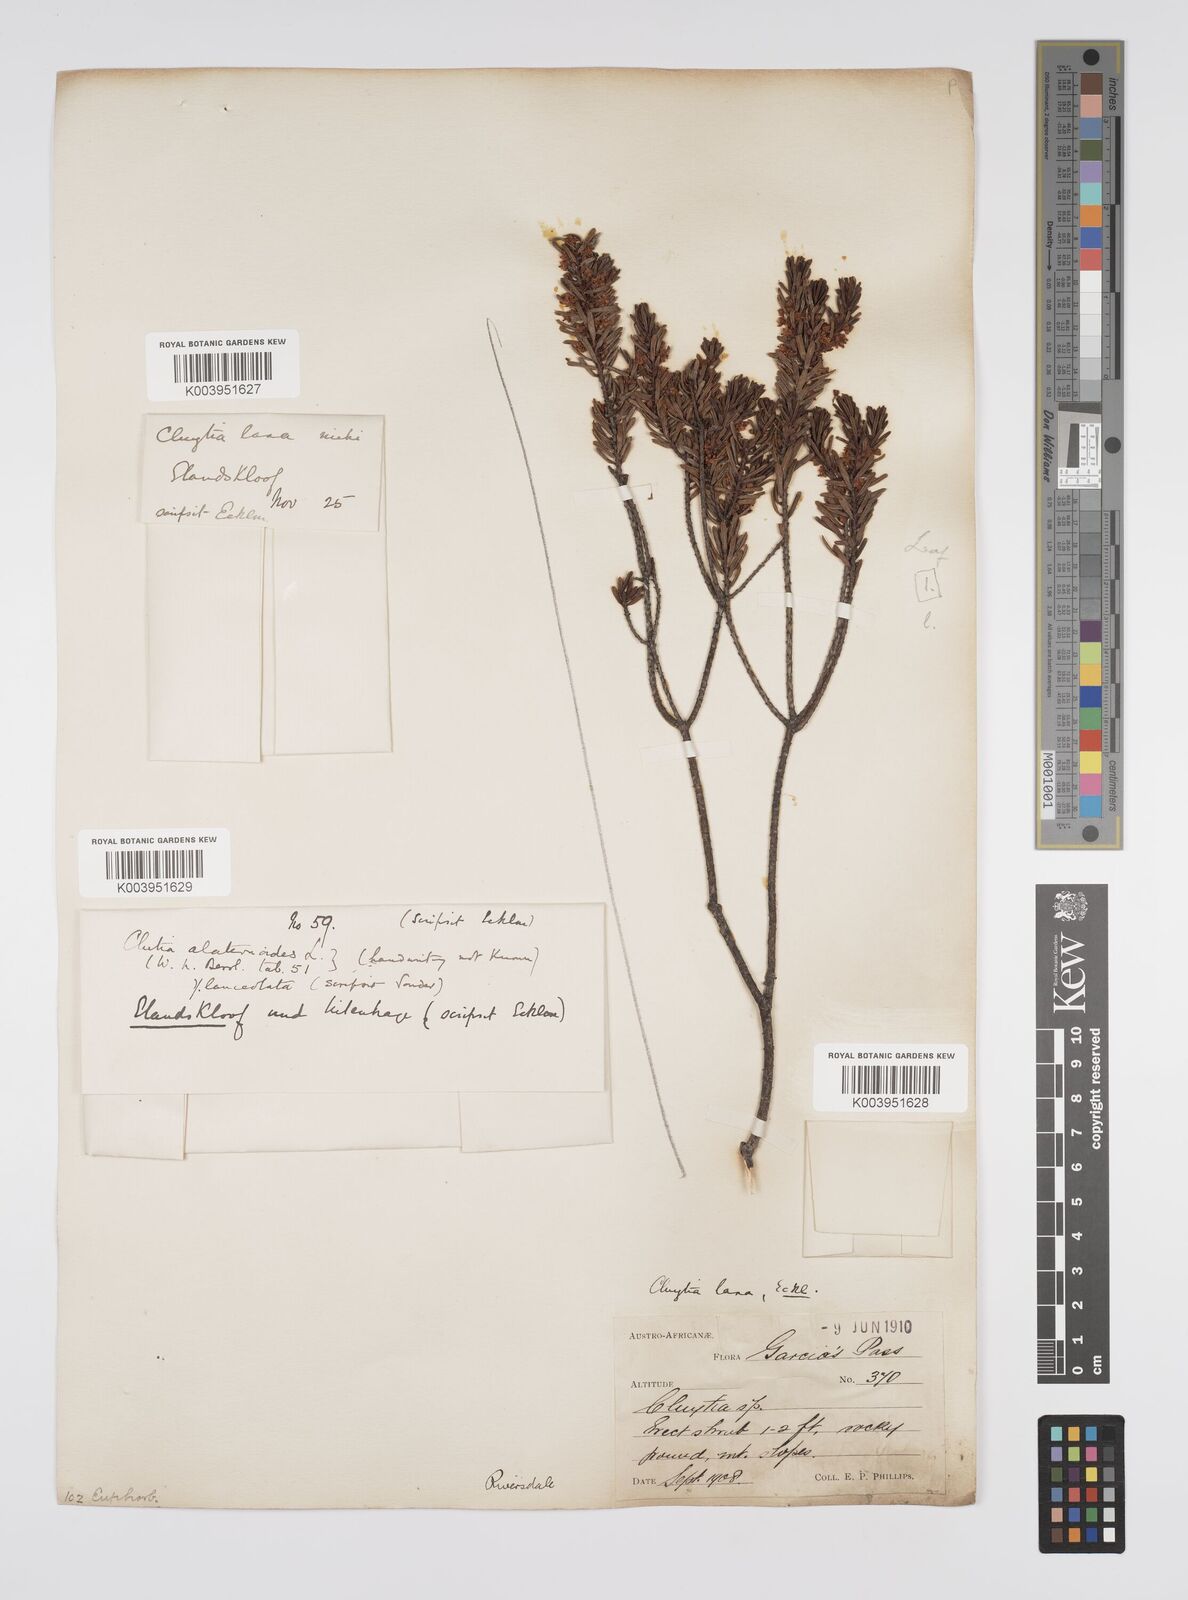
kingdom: Plantae
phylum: Tracheophyta
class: Magnoliopsida
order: Malpighiales
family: Peraceae
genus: Clutia
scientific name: Clutia laxa
